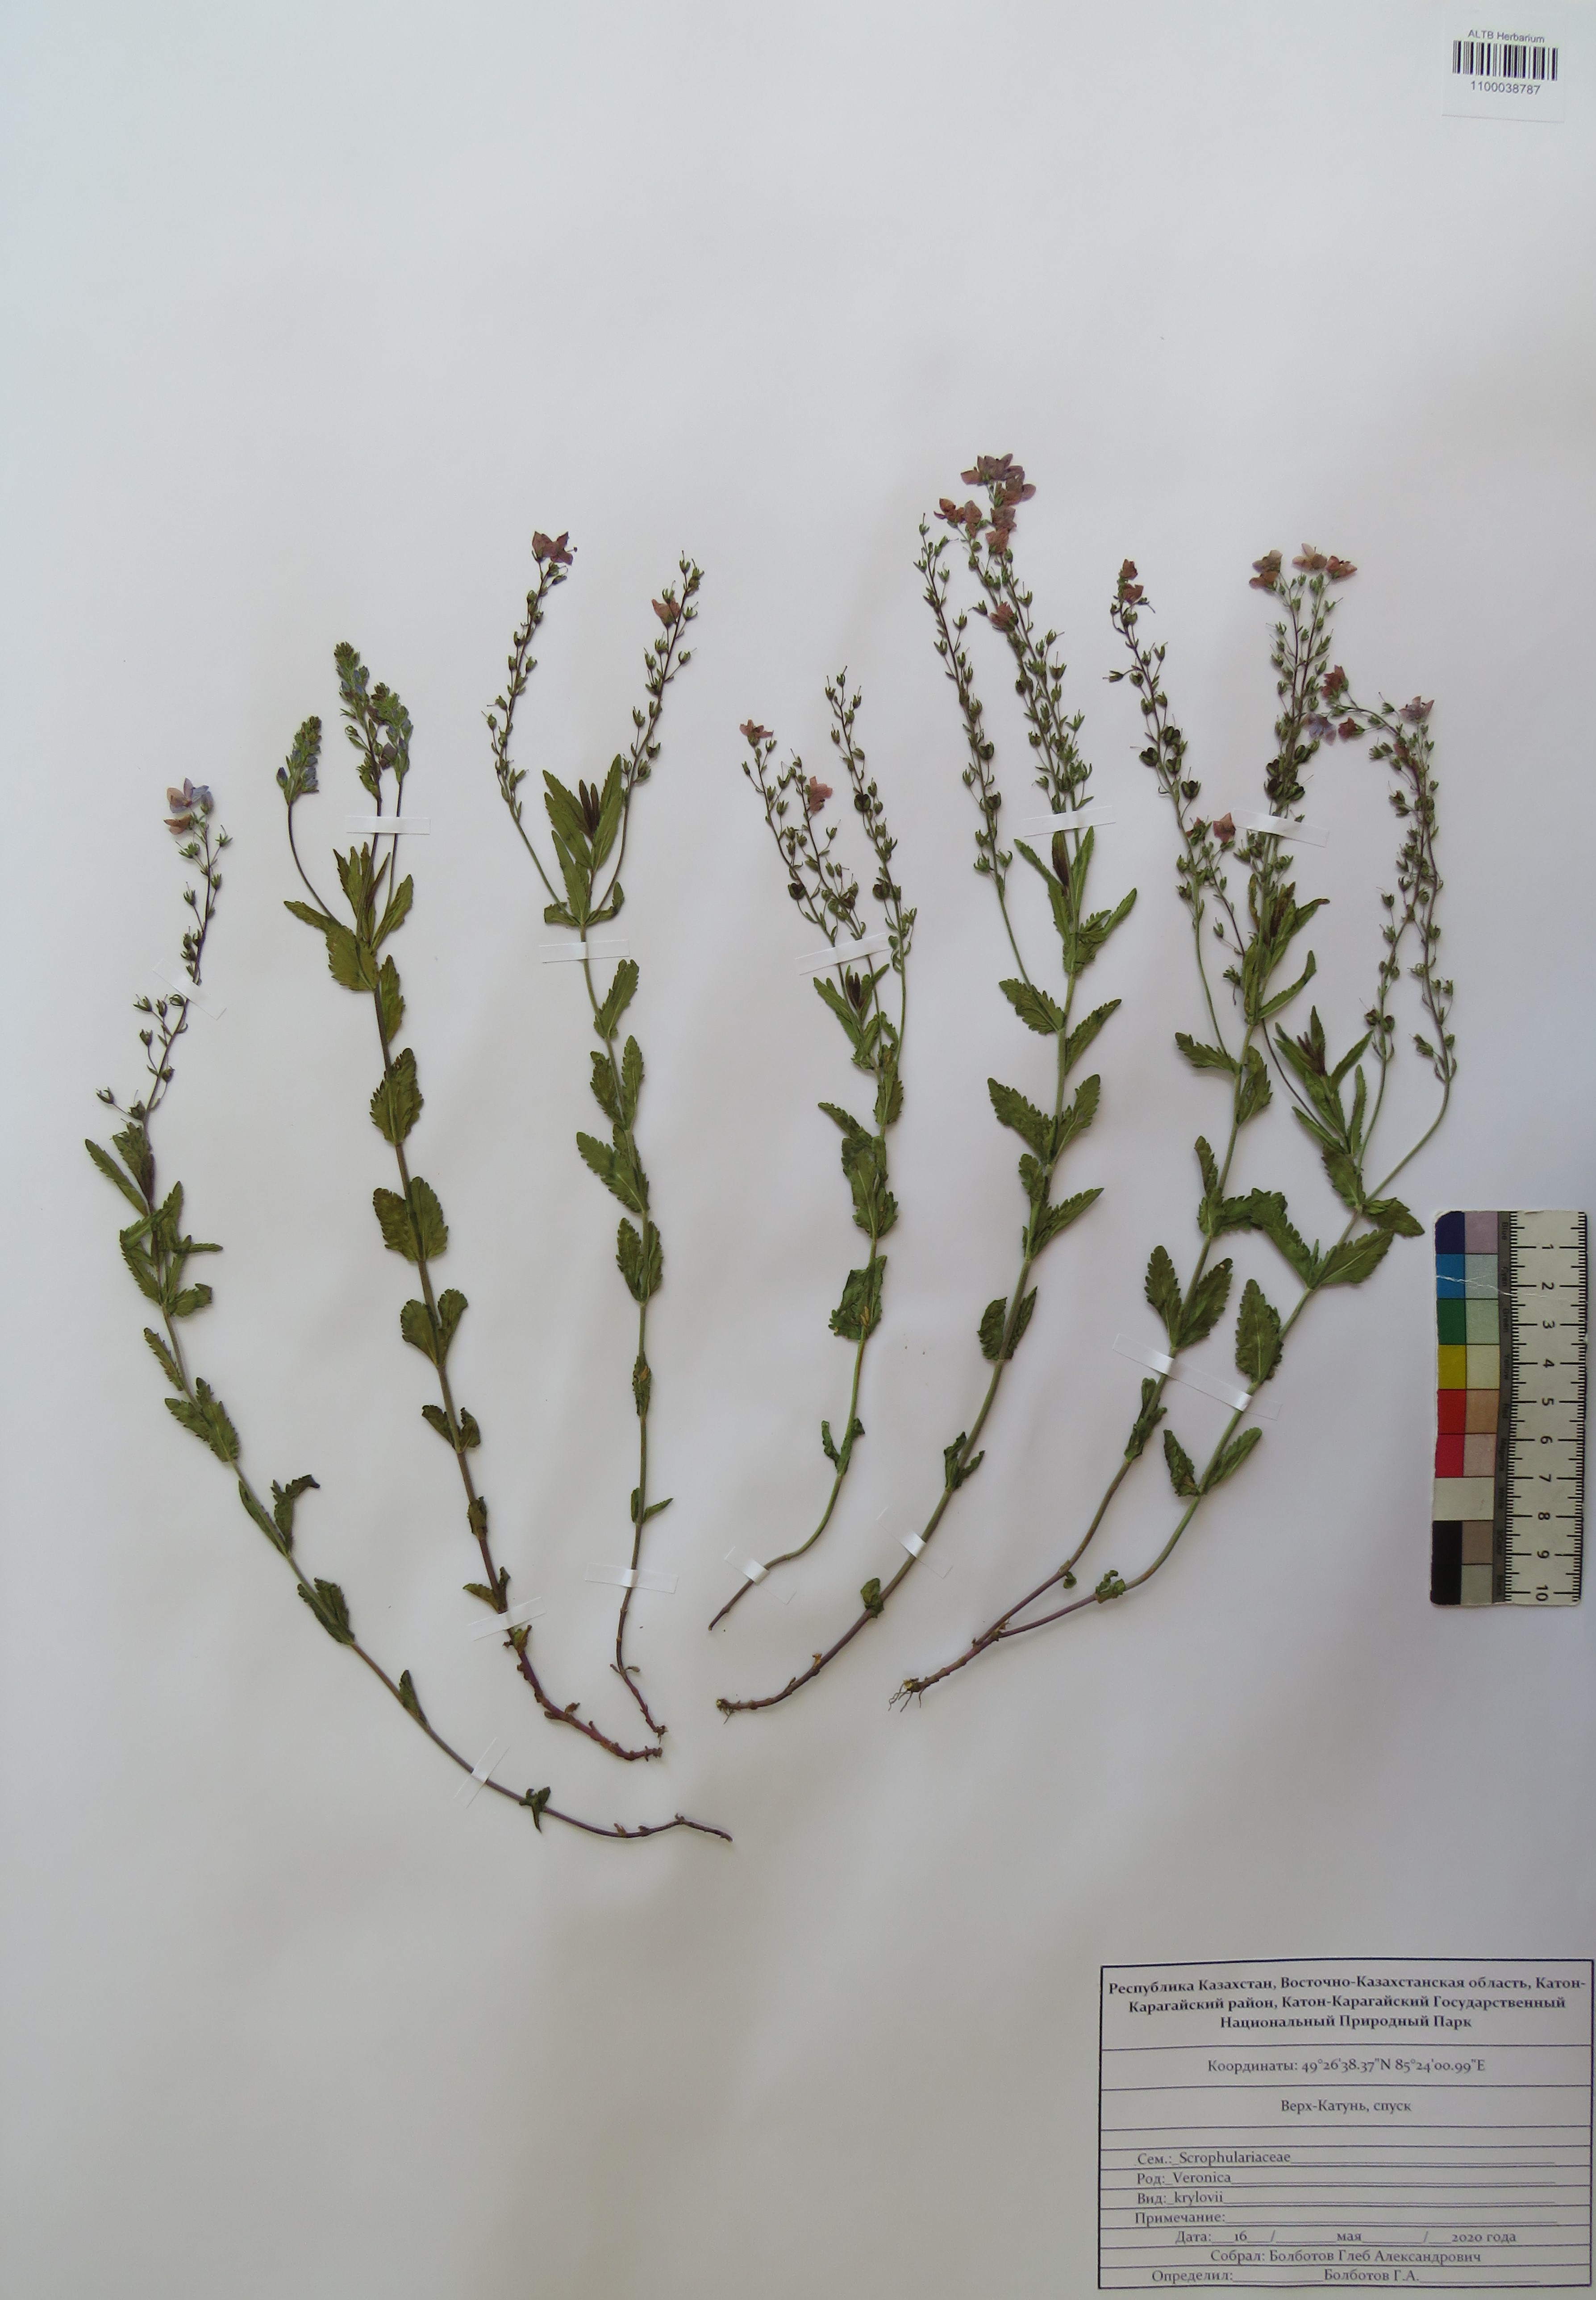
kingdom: Plantae
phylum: Tracheophyta
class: Magnoliopsida
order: Lamiales
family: Plantaginaceae
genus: Veronica
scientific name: Veronica krylovii
